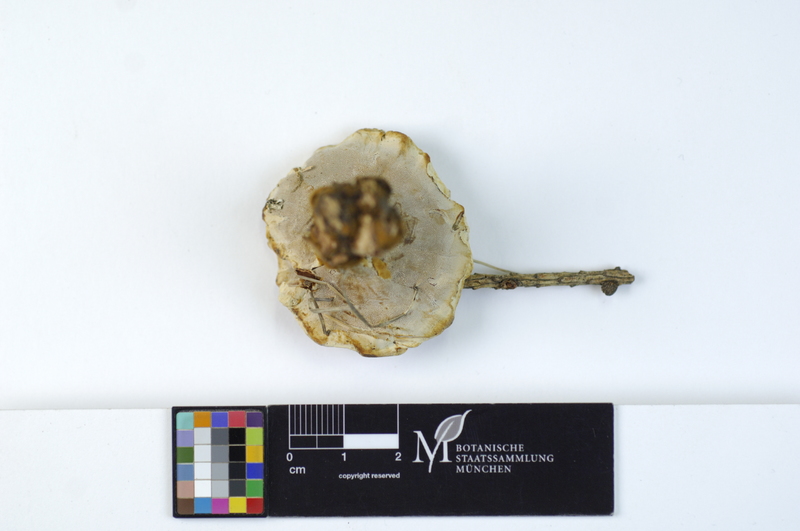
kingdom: Plantae
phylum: Tracheophyta
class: Pinopsida
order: Pinales
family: Pinaceae
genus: Larix
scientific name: Larix
